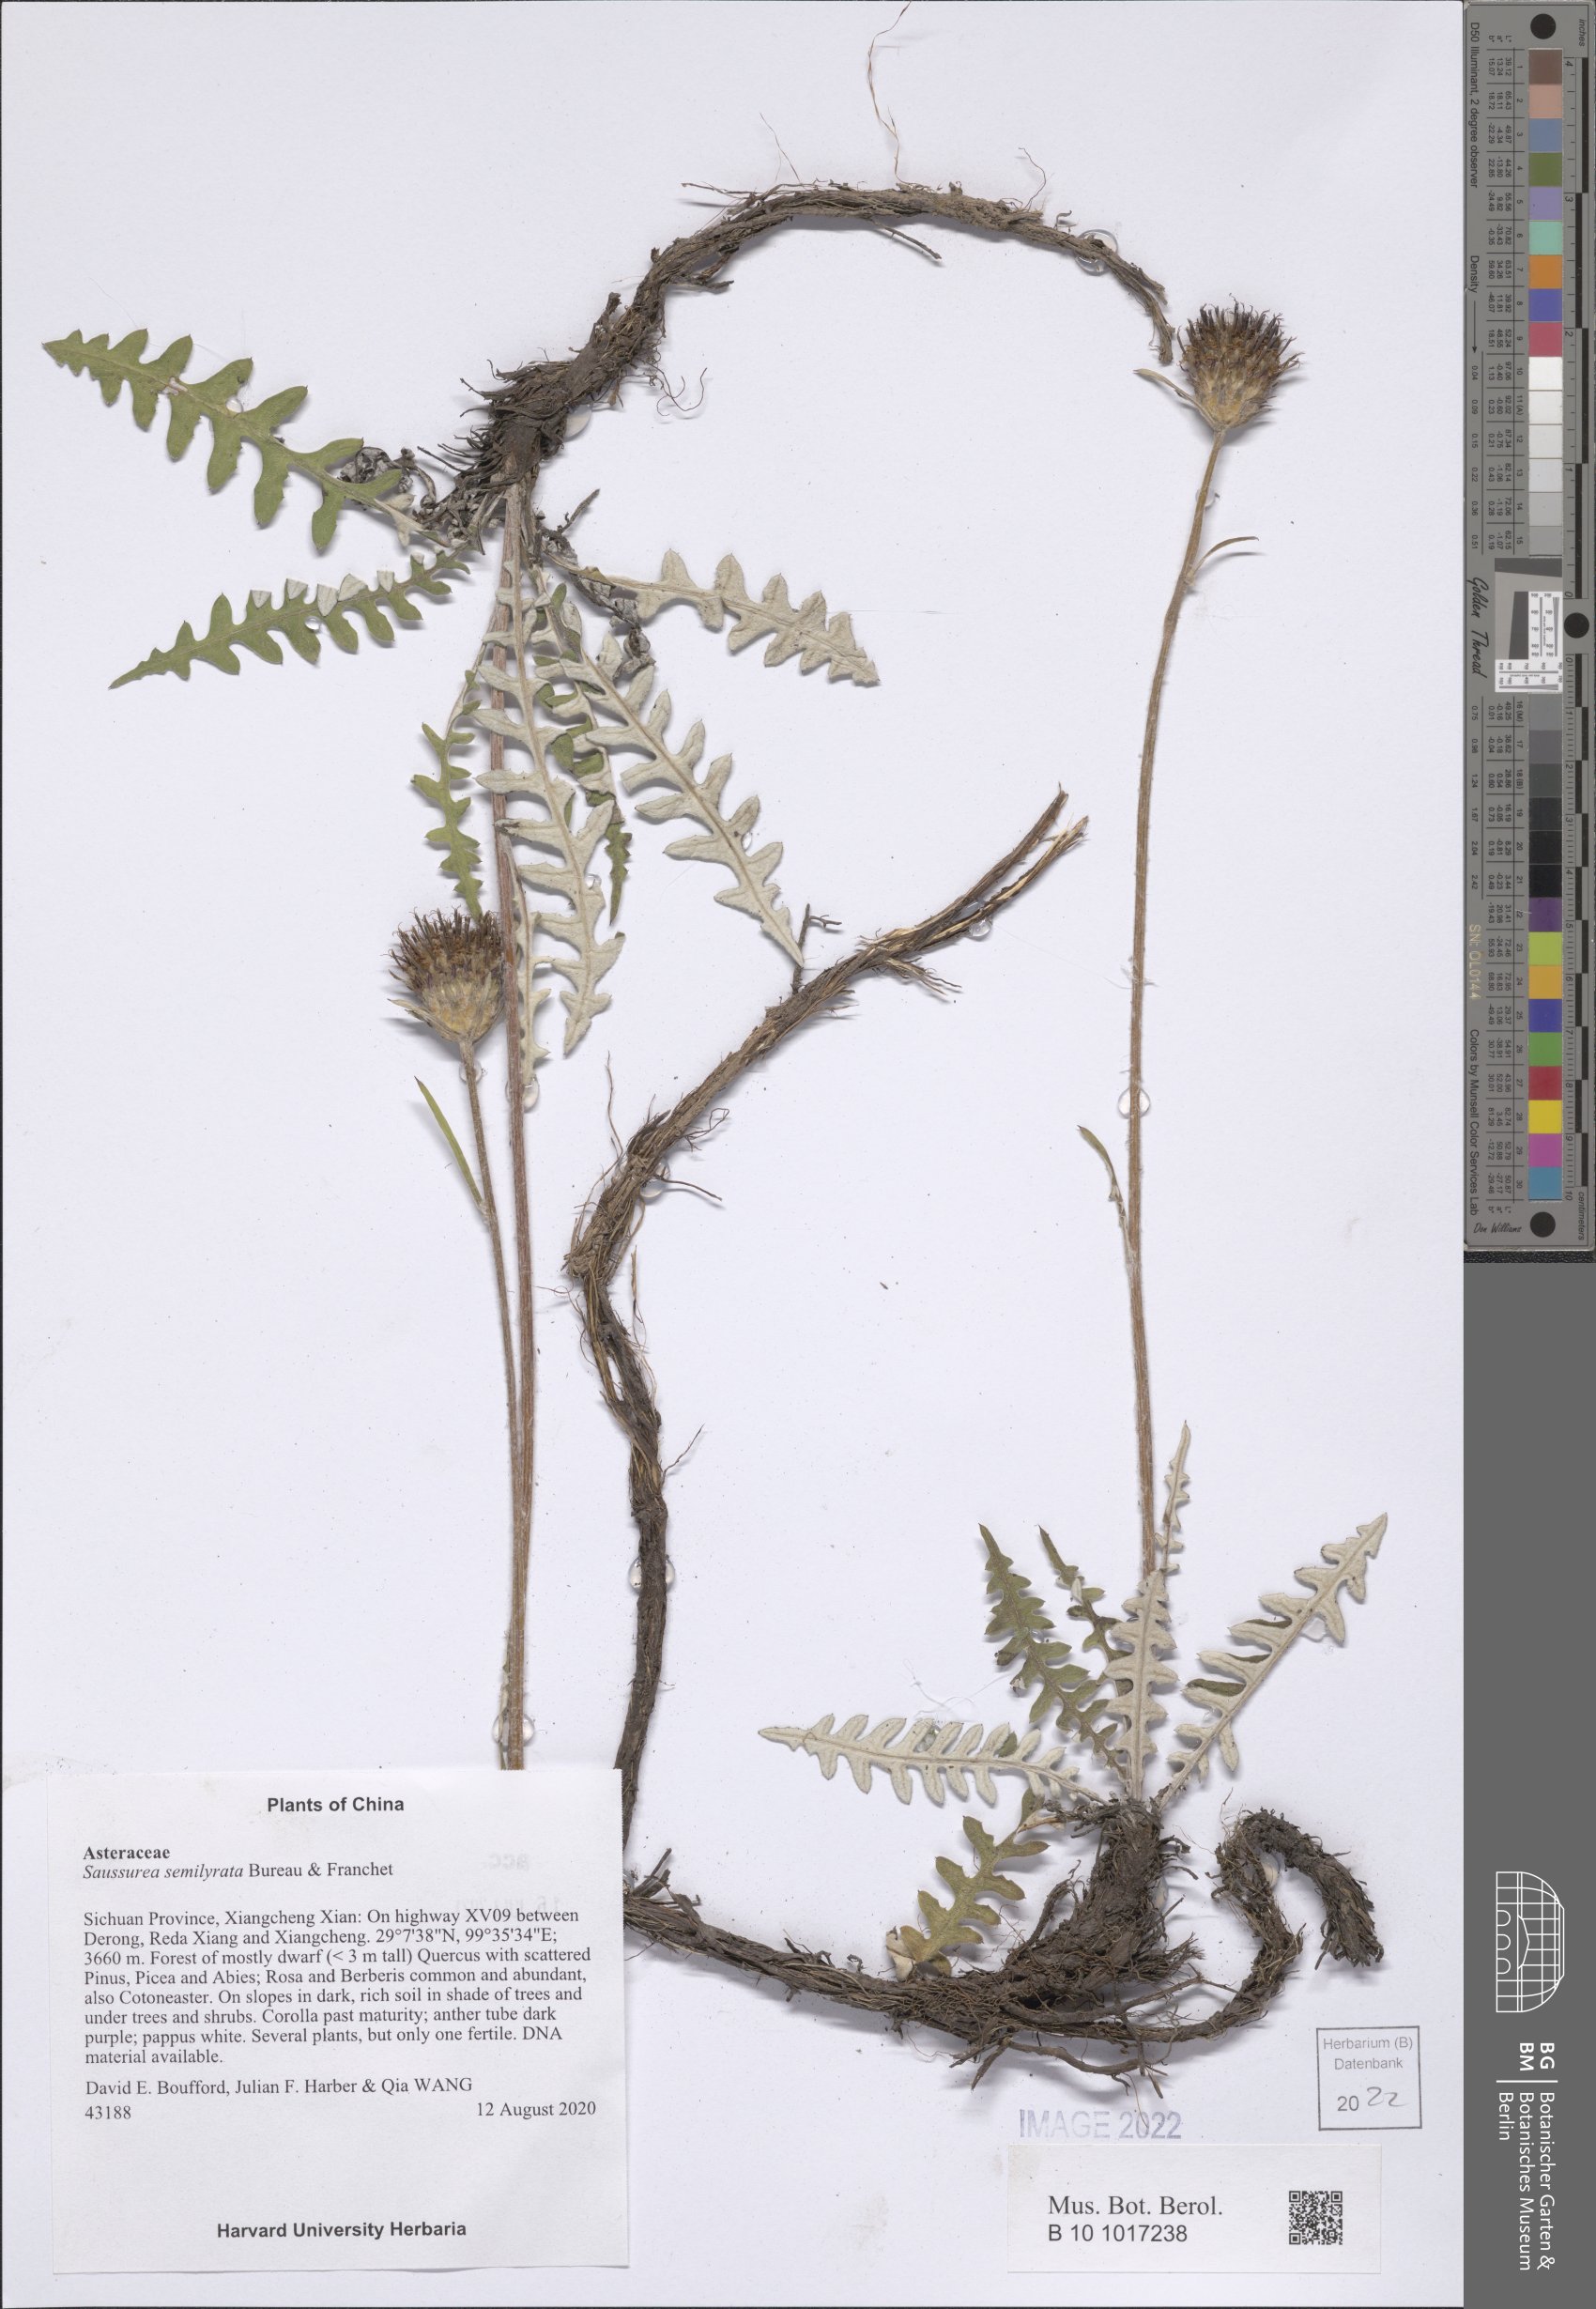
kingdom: Plantae
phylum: Tracheophyta
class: Magnoliopsida
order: Asterales
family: Asteraceae
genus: Saussurea
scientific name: Saussurea semilyrata
